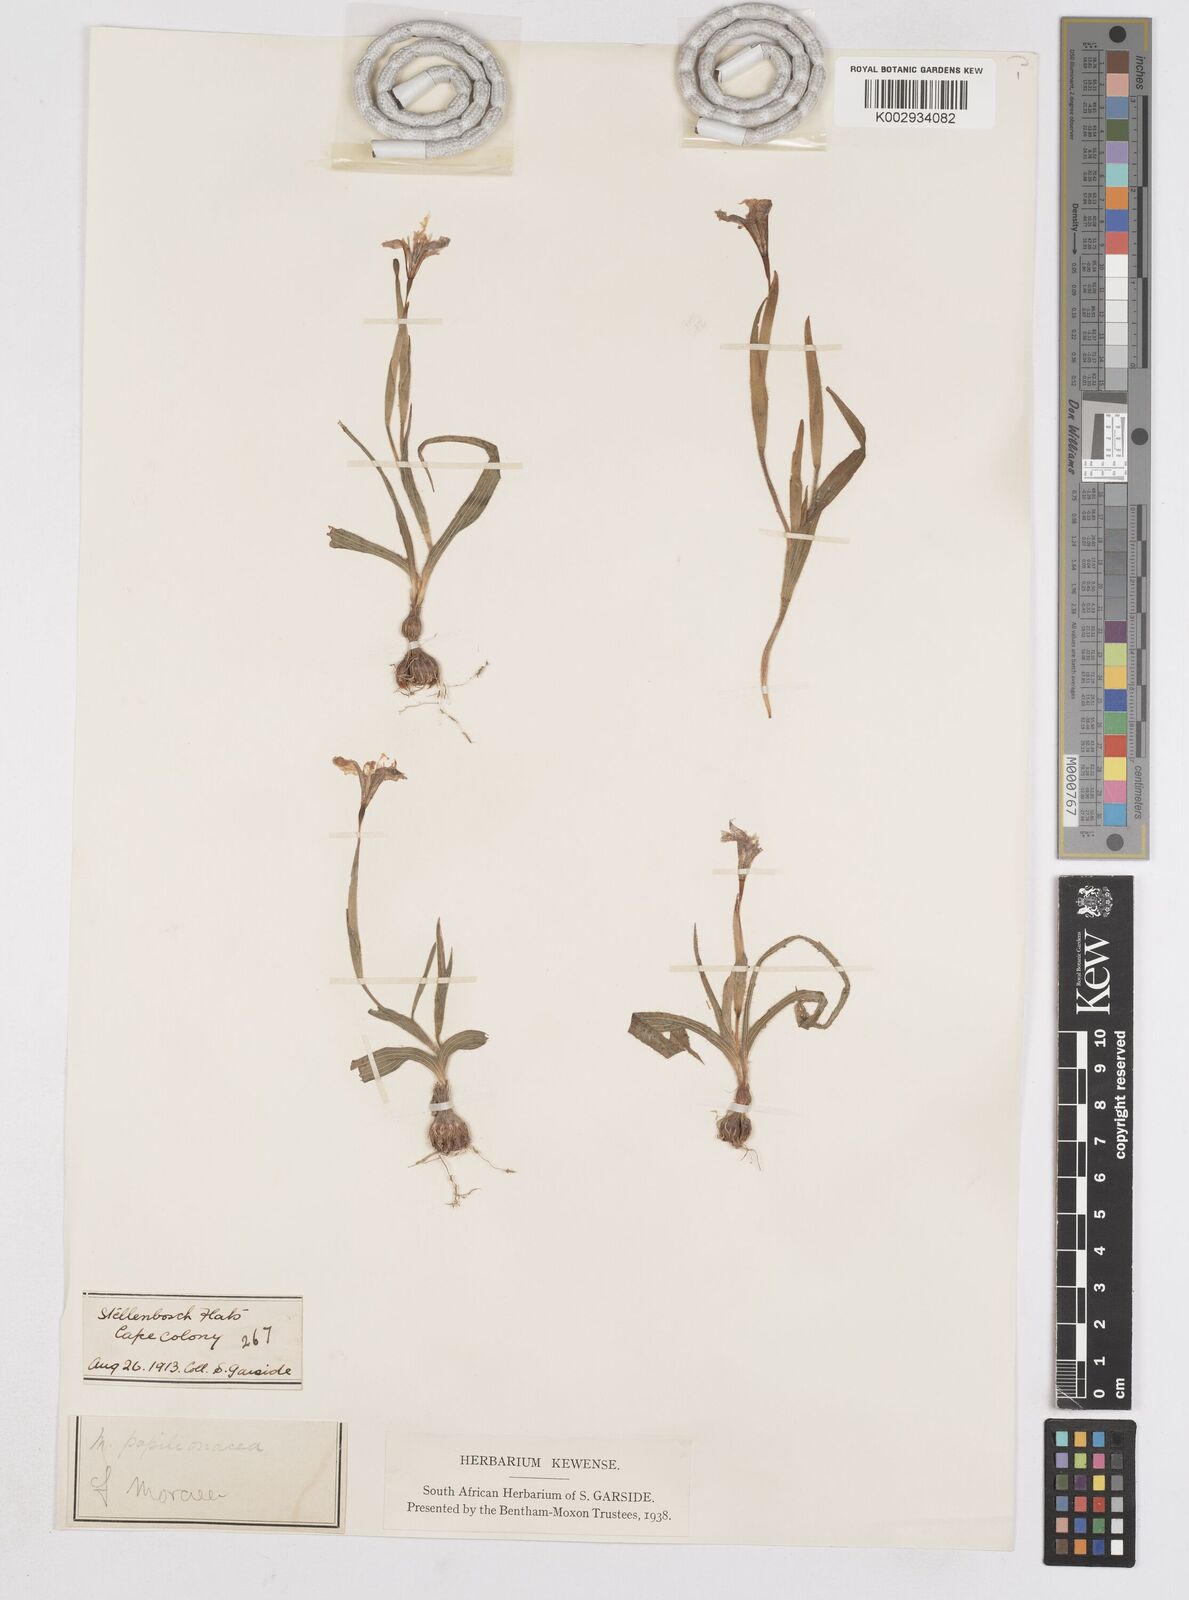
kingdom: Plantae
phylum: Tracheophyta
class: Liliopsida
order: Asparagales
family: Iridaceae
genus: Moraea
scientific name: Moraea papilionacea
